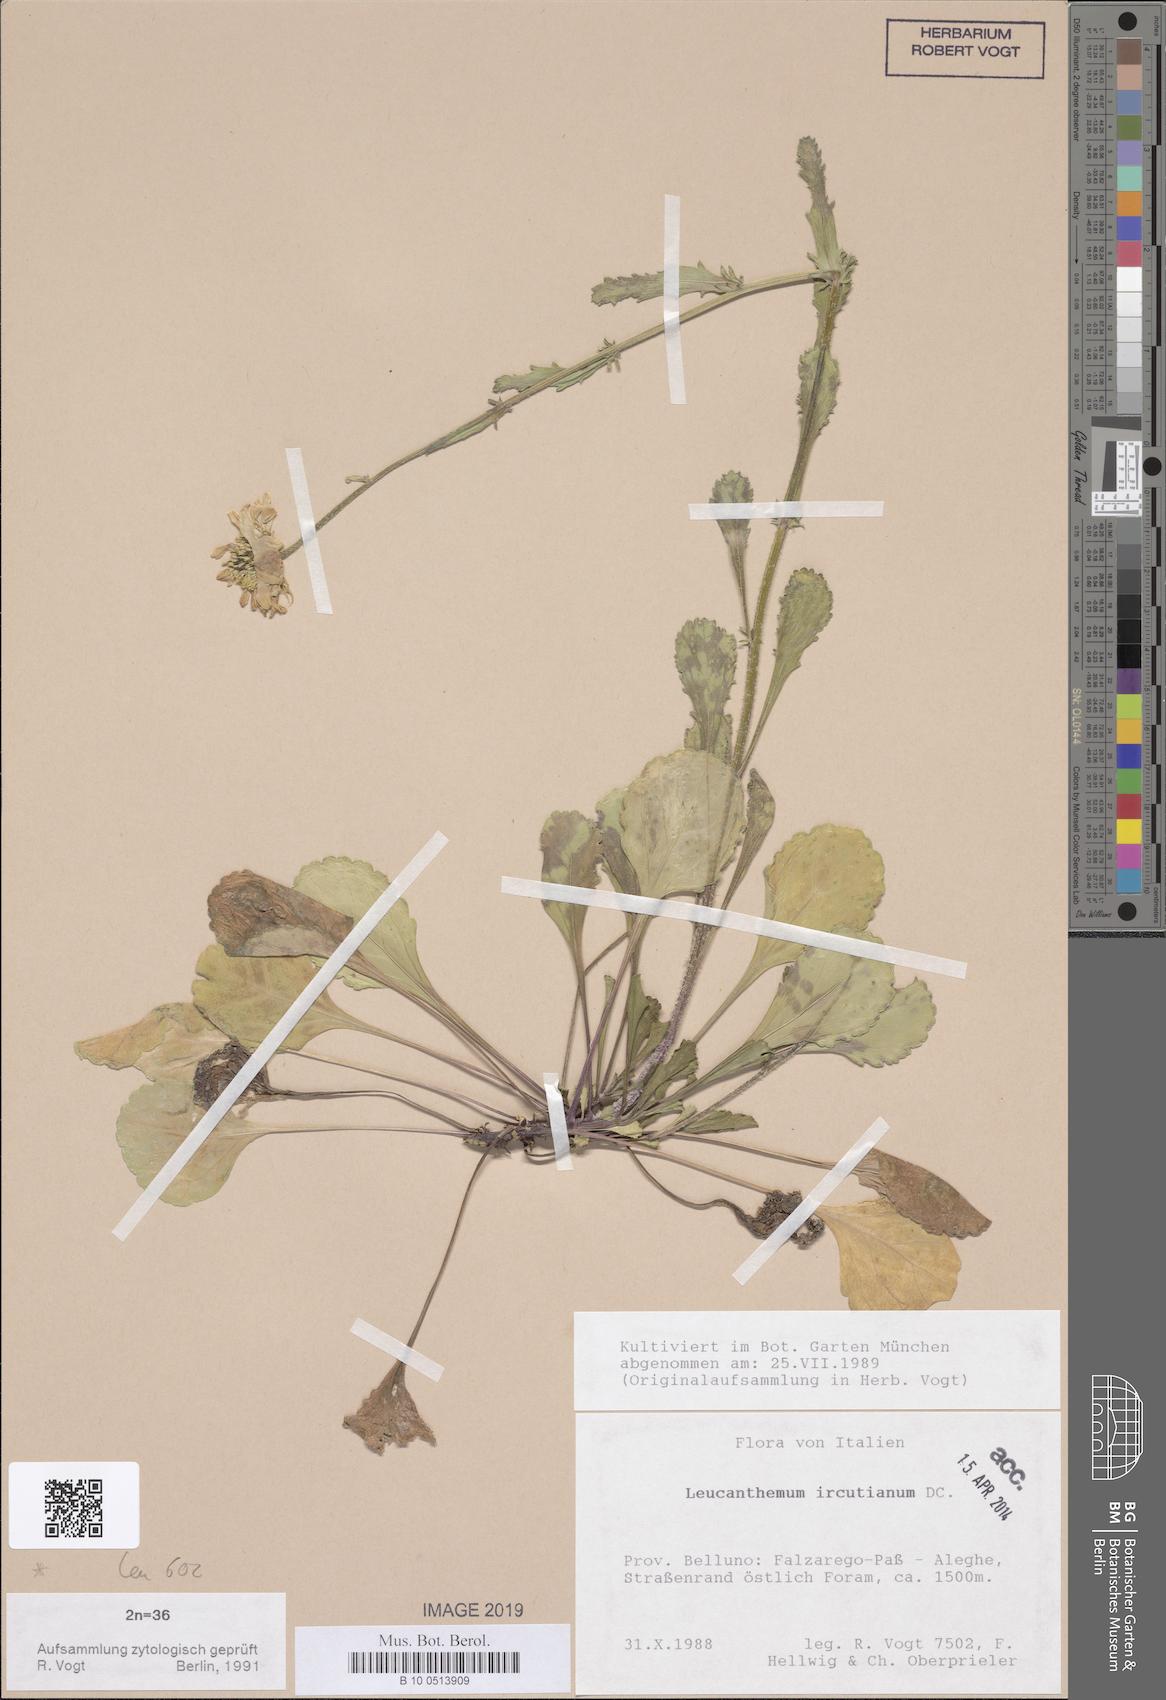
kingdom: Plantae
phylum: Tracheophyta
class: Magnoliopsida
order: Asterales
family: Asteraceae
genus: Leucanthemum
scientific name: Leucanthemum ircutianum
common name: Daisy
